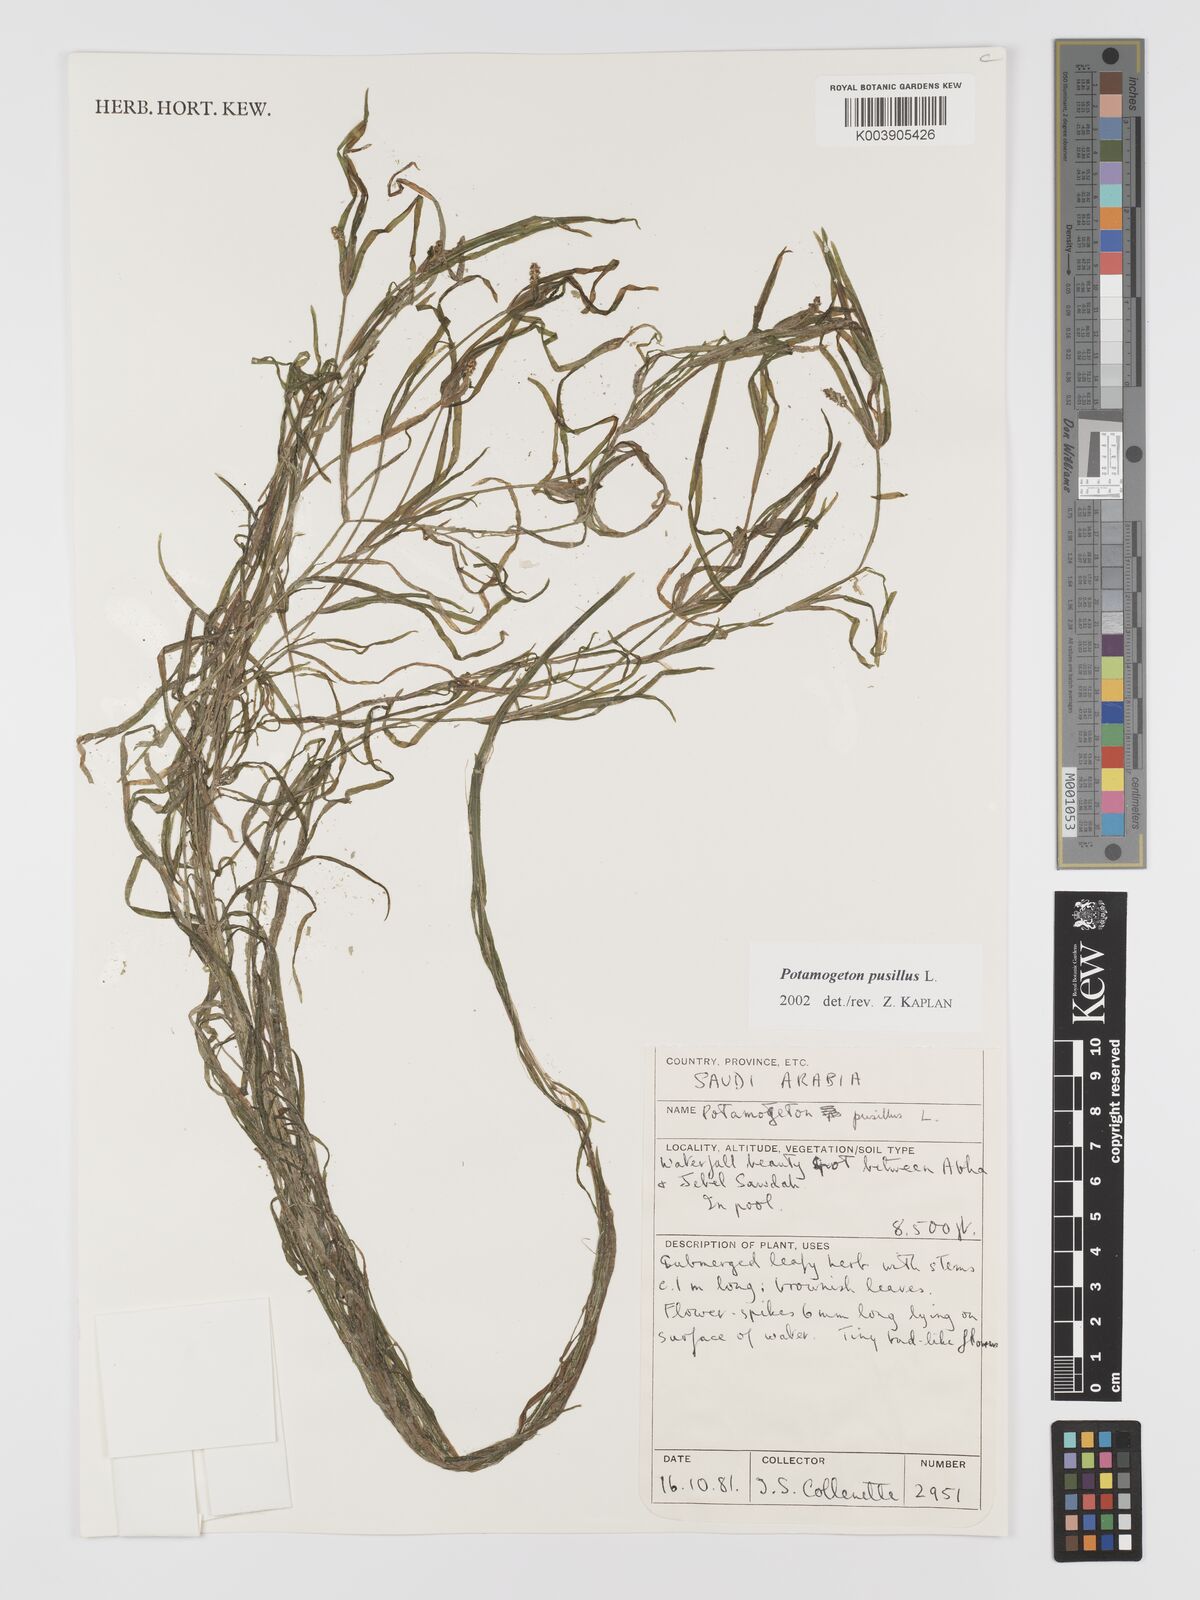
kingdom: Plantae
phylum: Tracheophyta
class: Liliopsida
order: Alismatales
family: Potamogetonaceae
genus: Potamogeton
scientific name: Potamogeton pusillus
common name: Lesser pondweed
